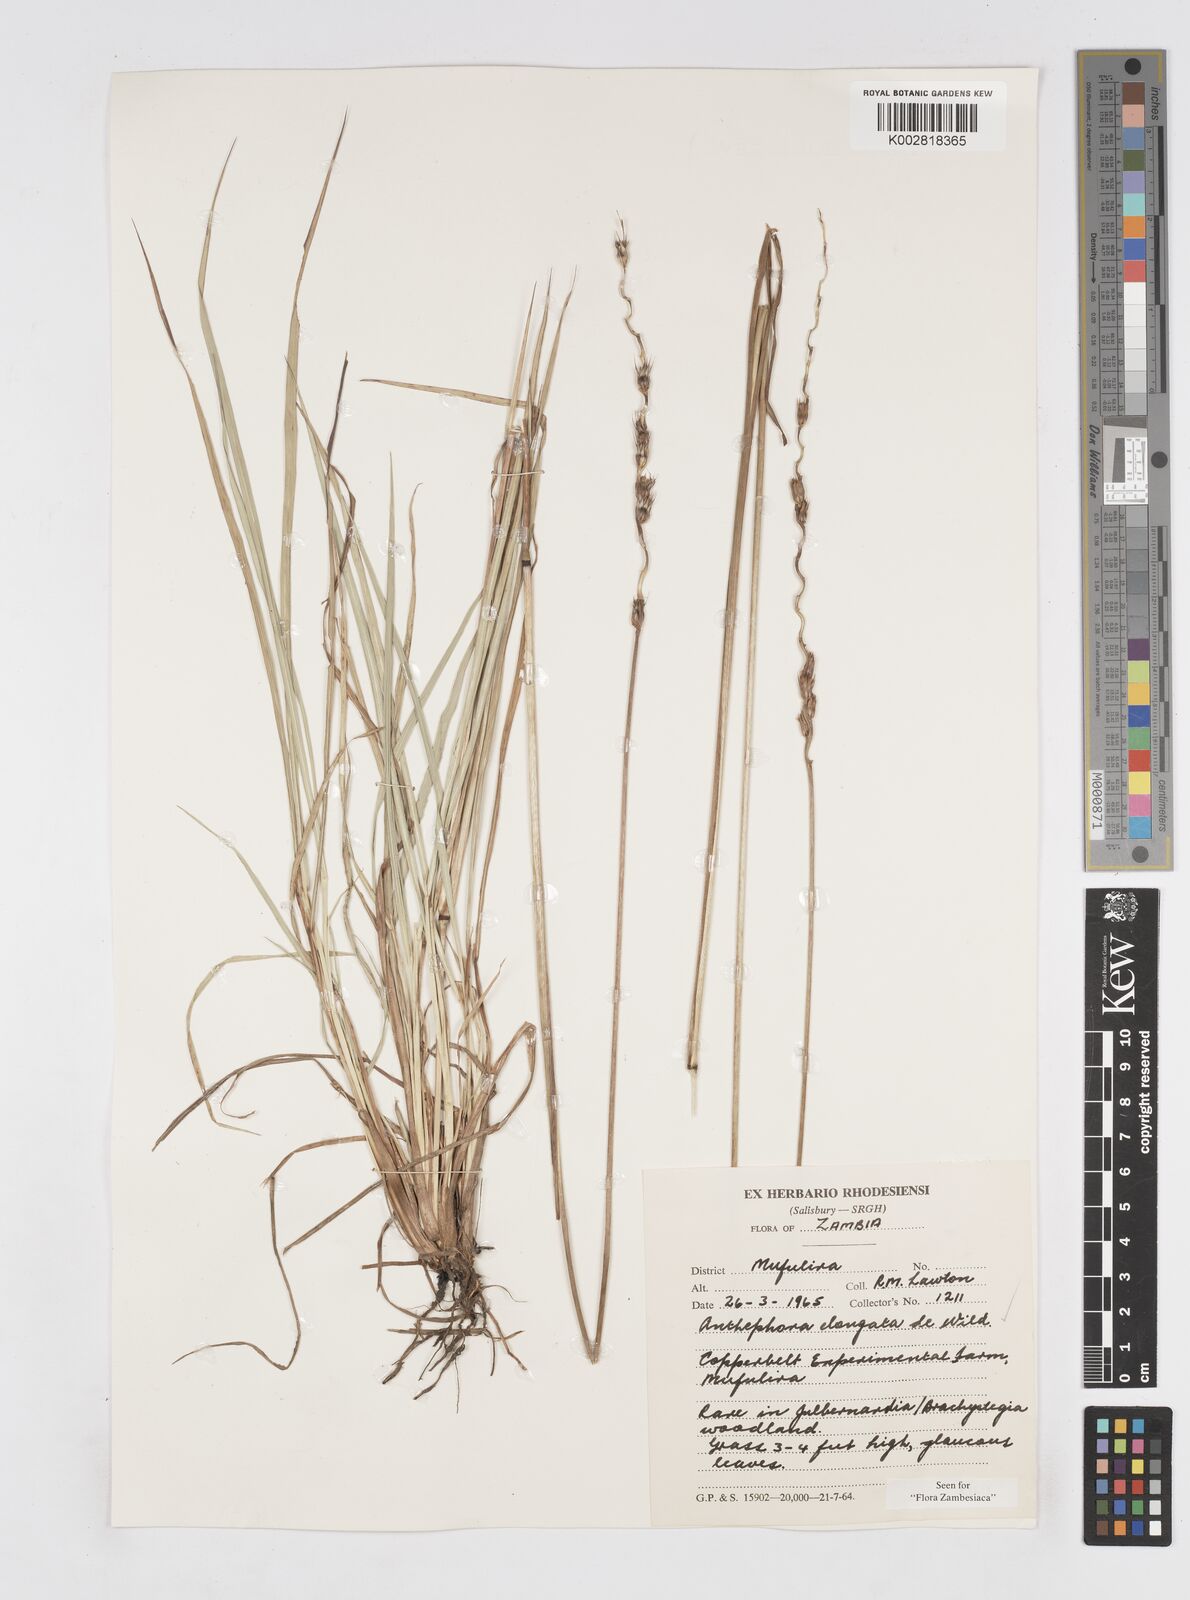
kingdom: Plantae
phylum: Tracheophyta
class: Liliopsida
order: Poales
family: Poaceae
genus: Anthephora
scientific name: Anthephora elongata
